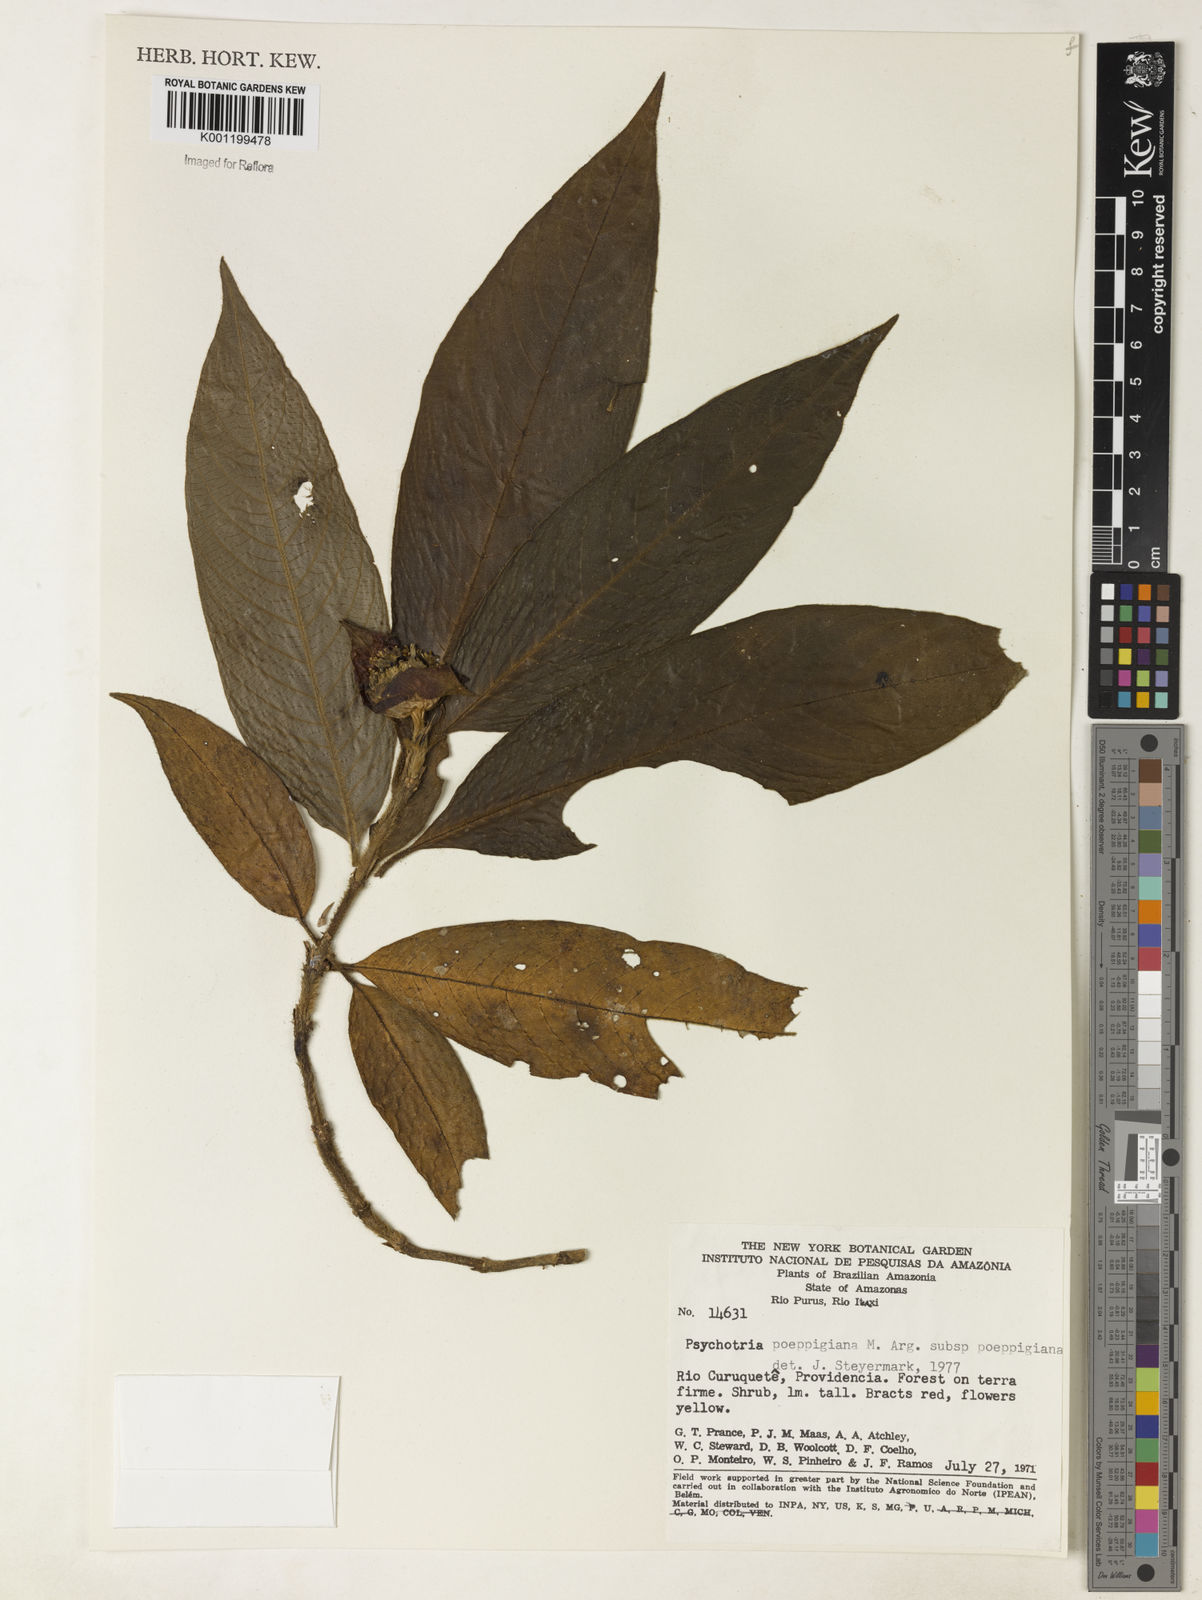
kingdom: Plantae
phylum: Tracheophyta
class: Magnoliopsida
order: Gentianales
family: Rubiaceae
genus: Psychotria
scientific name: Psychotria
